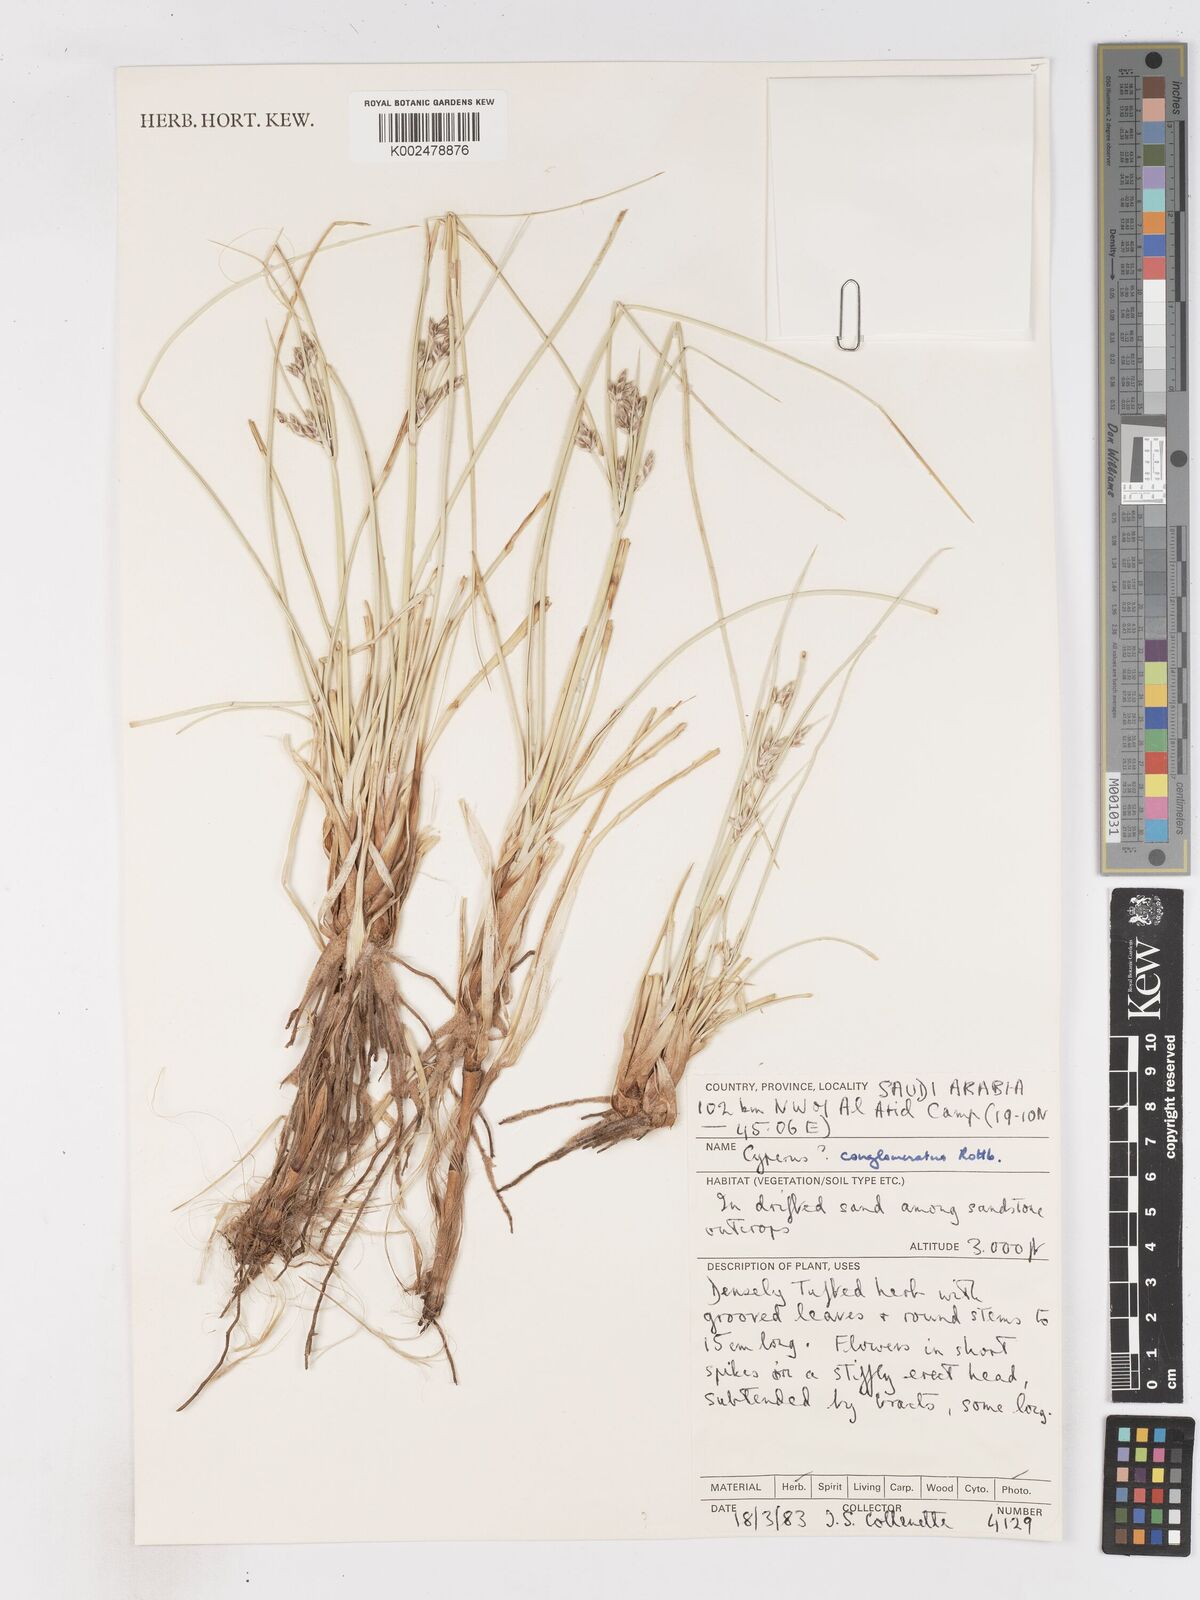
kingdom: Plantae
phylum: Tracheophyta
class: Liliopsida
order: Poales
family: Cyperaceae
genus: Cyperus
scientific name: Cyperus conglomeratus
